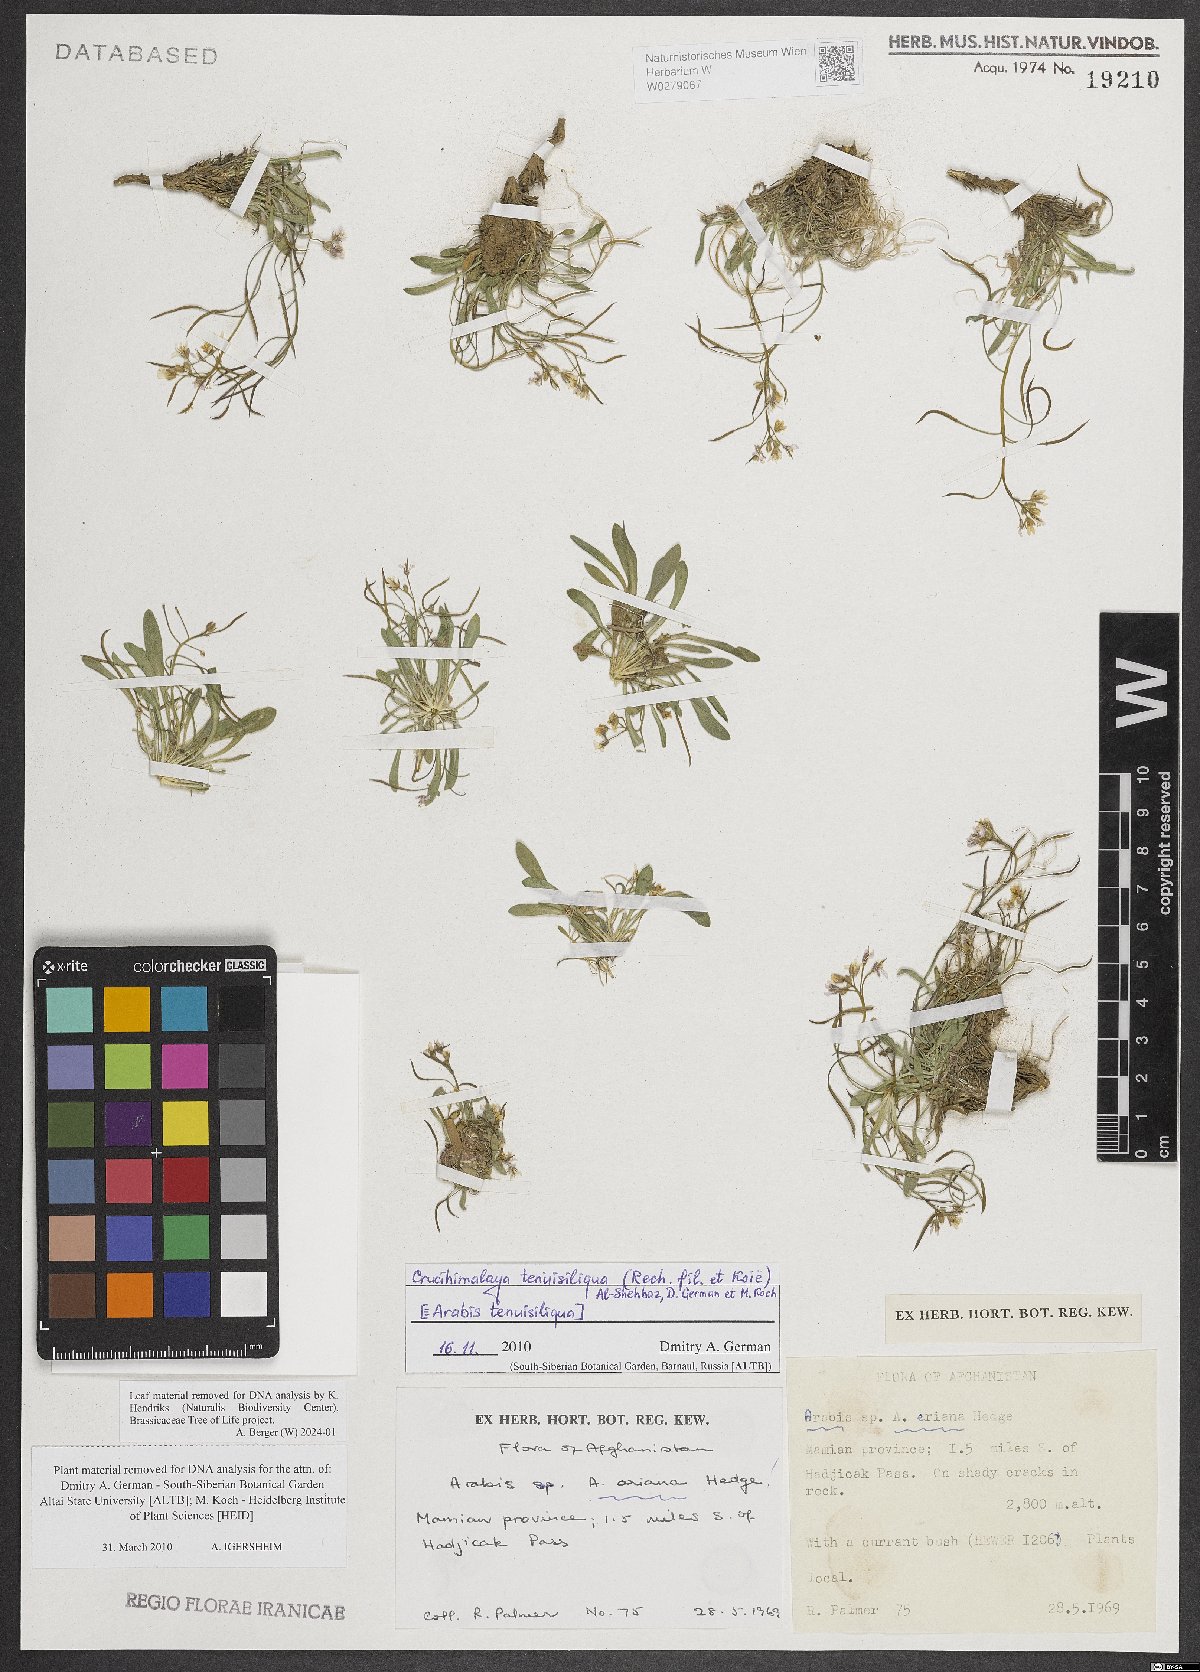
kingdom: Plantae
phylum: Tracheophyta
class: Magnoliopsida
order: Brassicales
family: Brassicaceae
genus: Crucihimalaya
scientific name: Crucihimalaya tenuisiliqua
